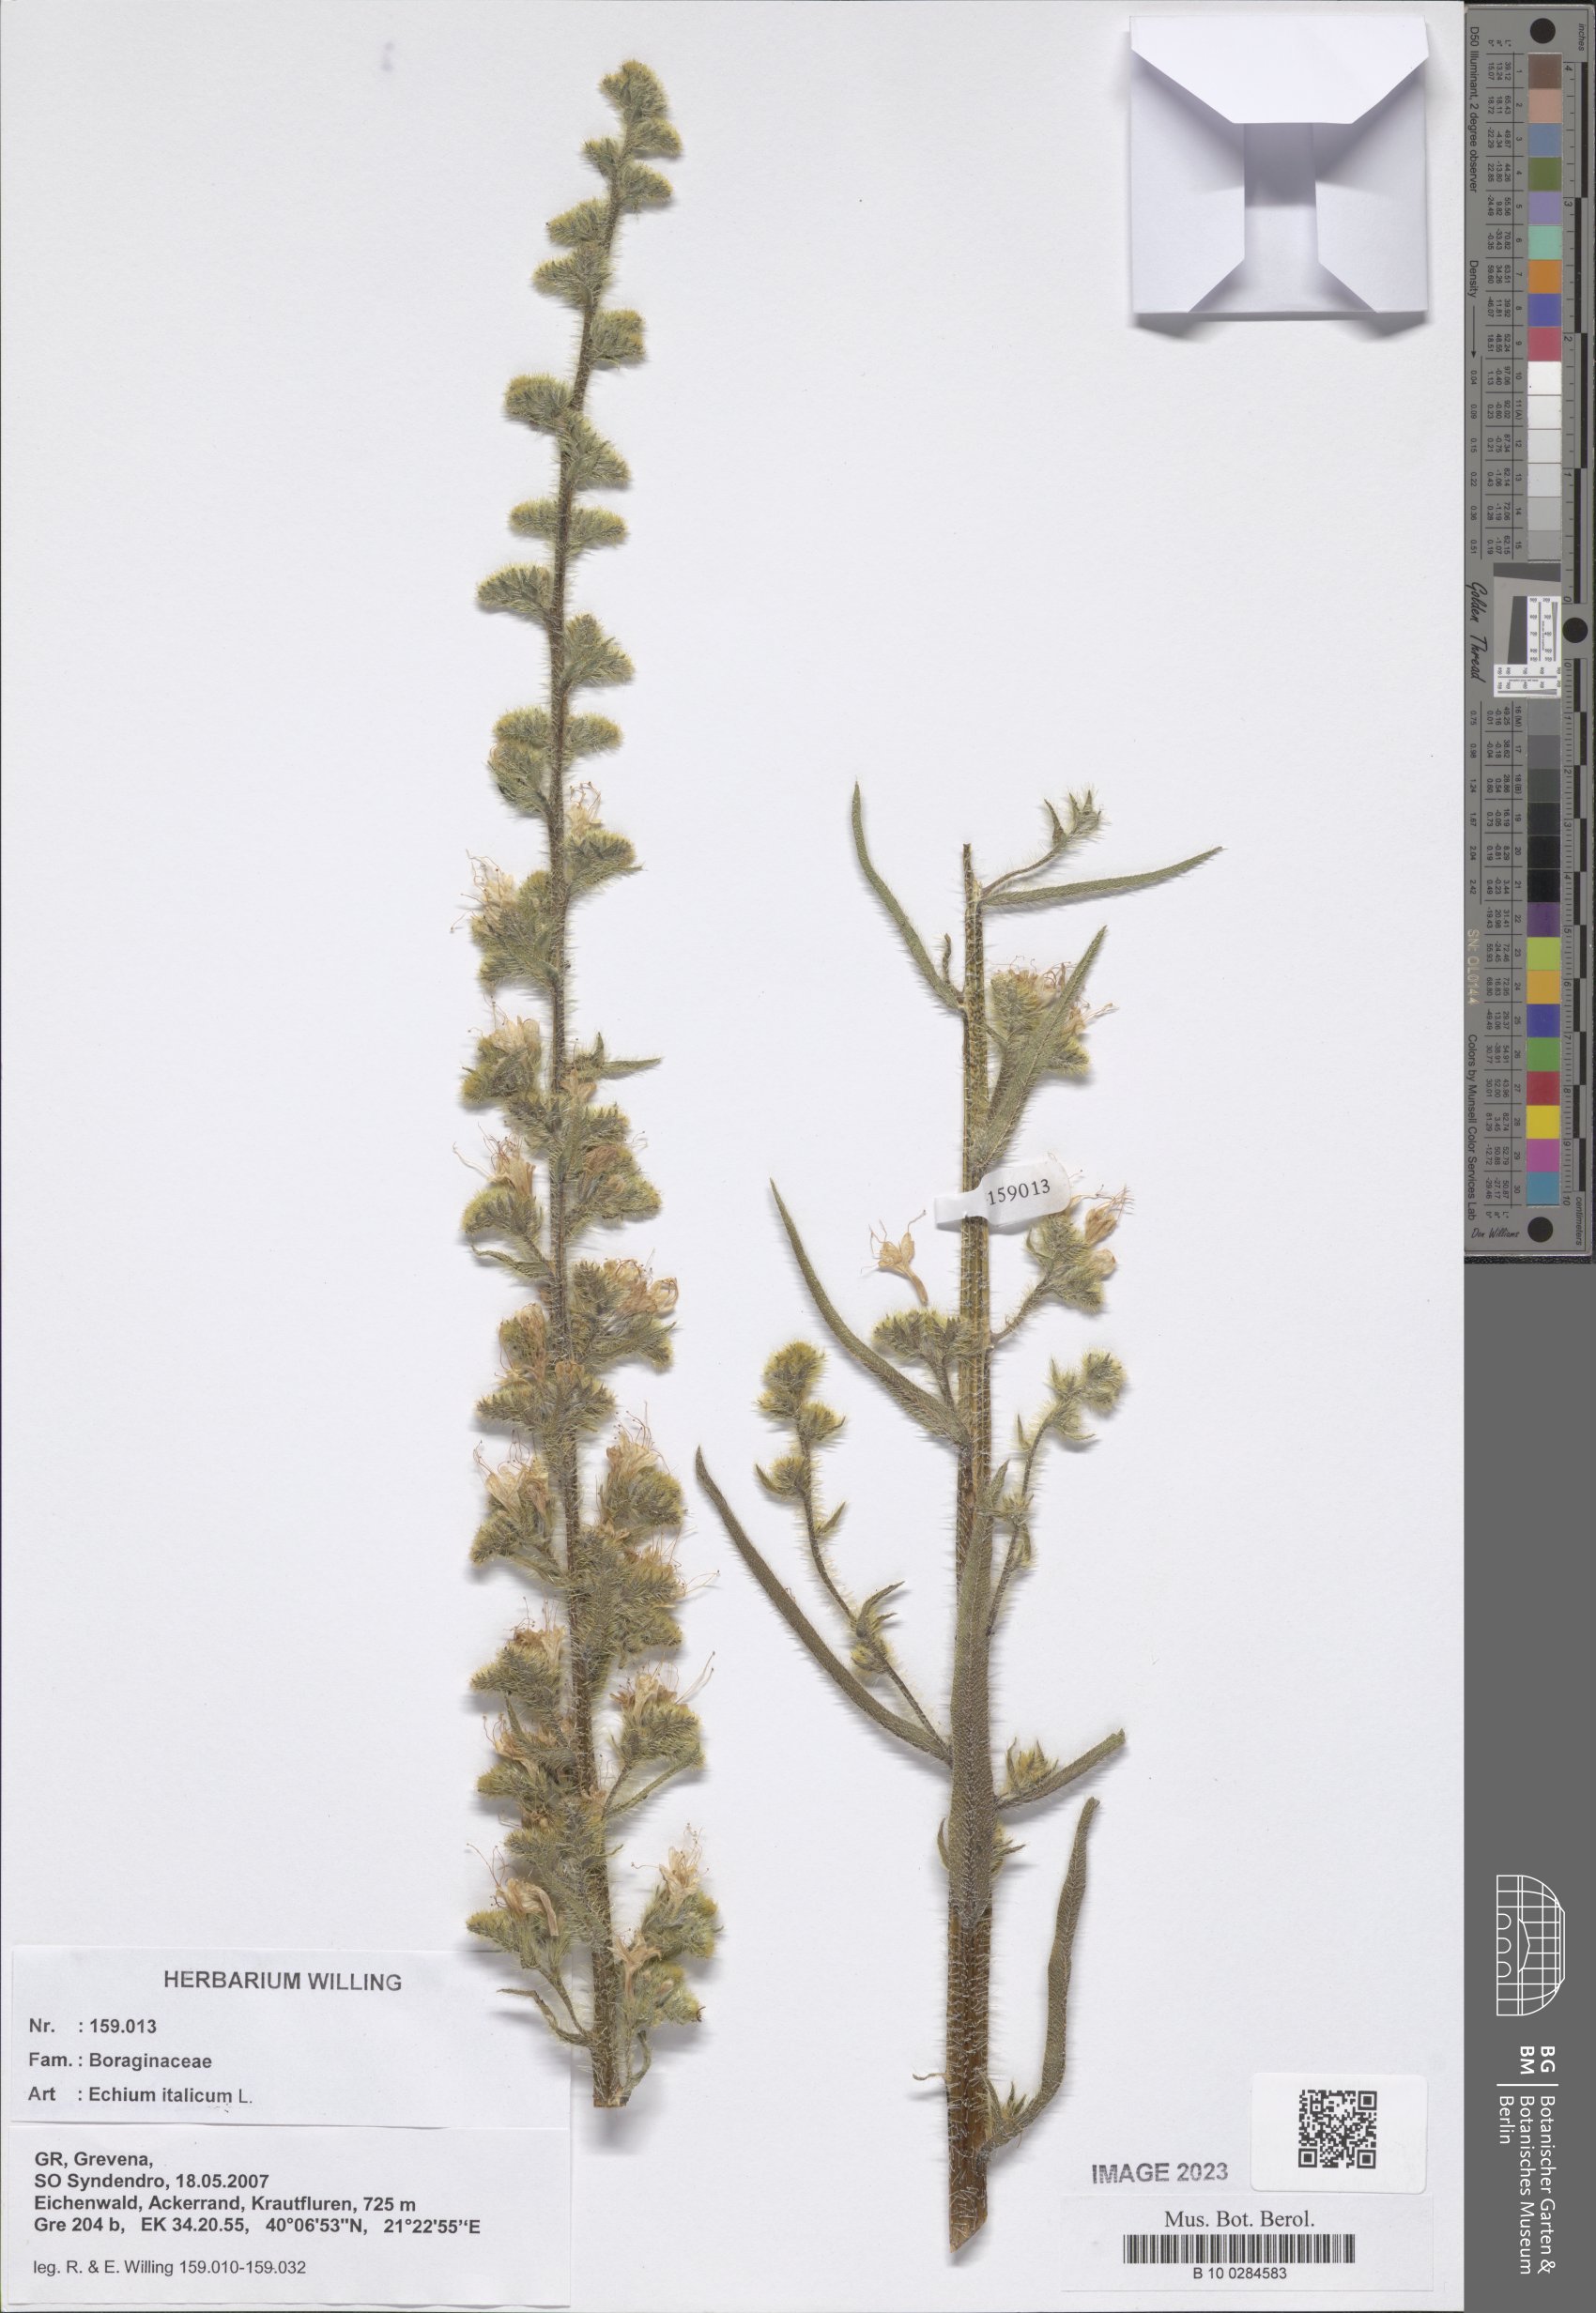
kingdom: Plantae
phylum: Tracheophyta
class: Magnoliopsida
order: Boraginales
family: Boraginaceae
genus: Echium
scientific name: Echium italicum
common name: Italian viper's bugloss
